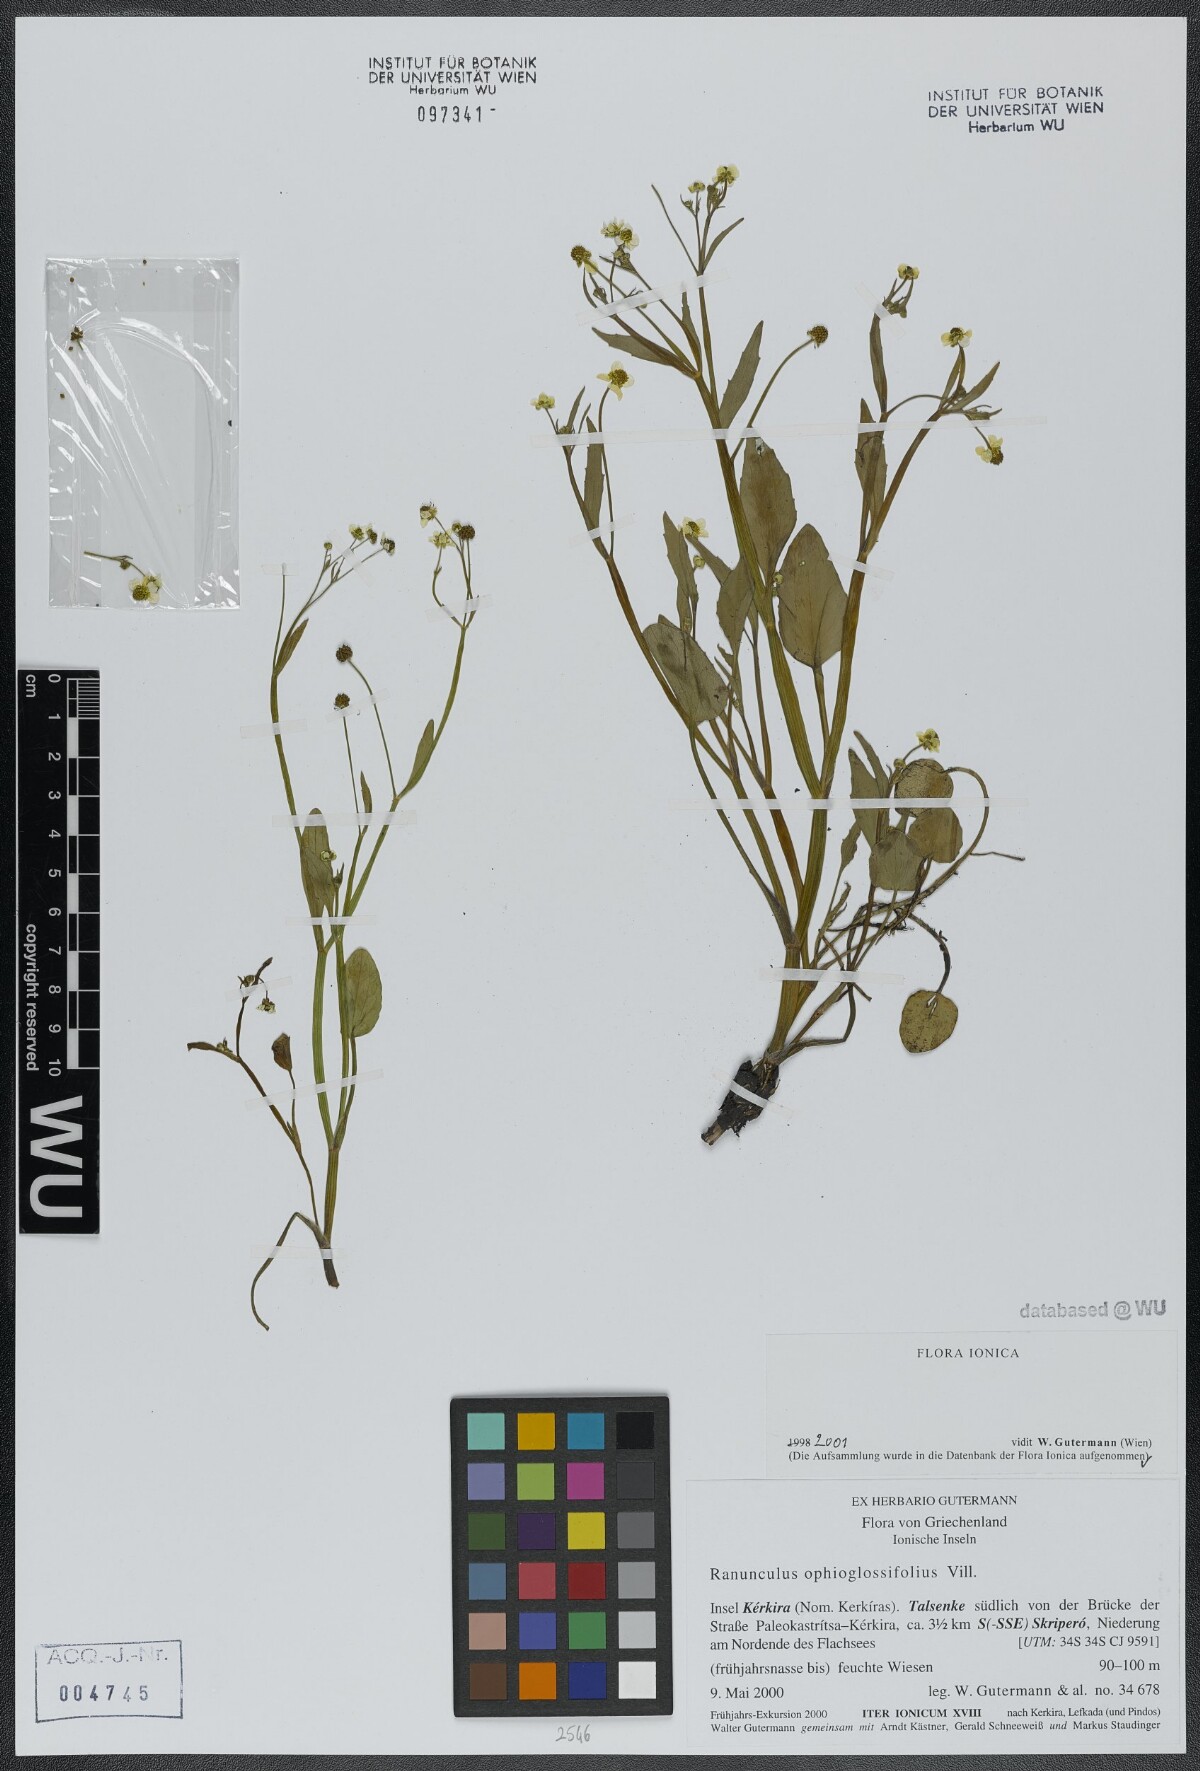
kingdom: Plantae
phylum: Tracheophyta
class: Magnoliopsida
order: Ranunculales
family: Ranunculaceae
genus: Ranunculus
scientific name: Ranunculus ophioglossifolius
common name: Adder's-tongue spearwort
